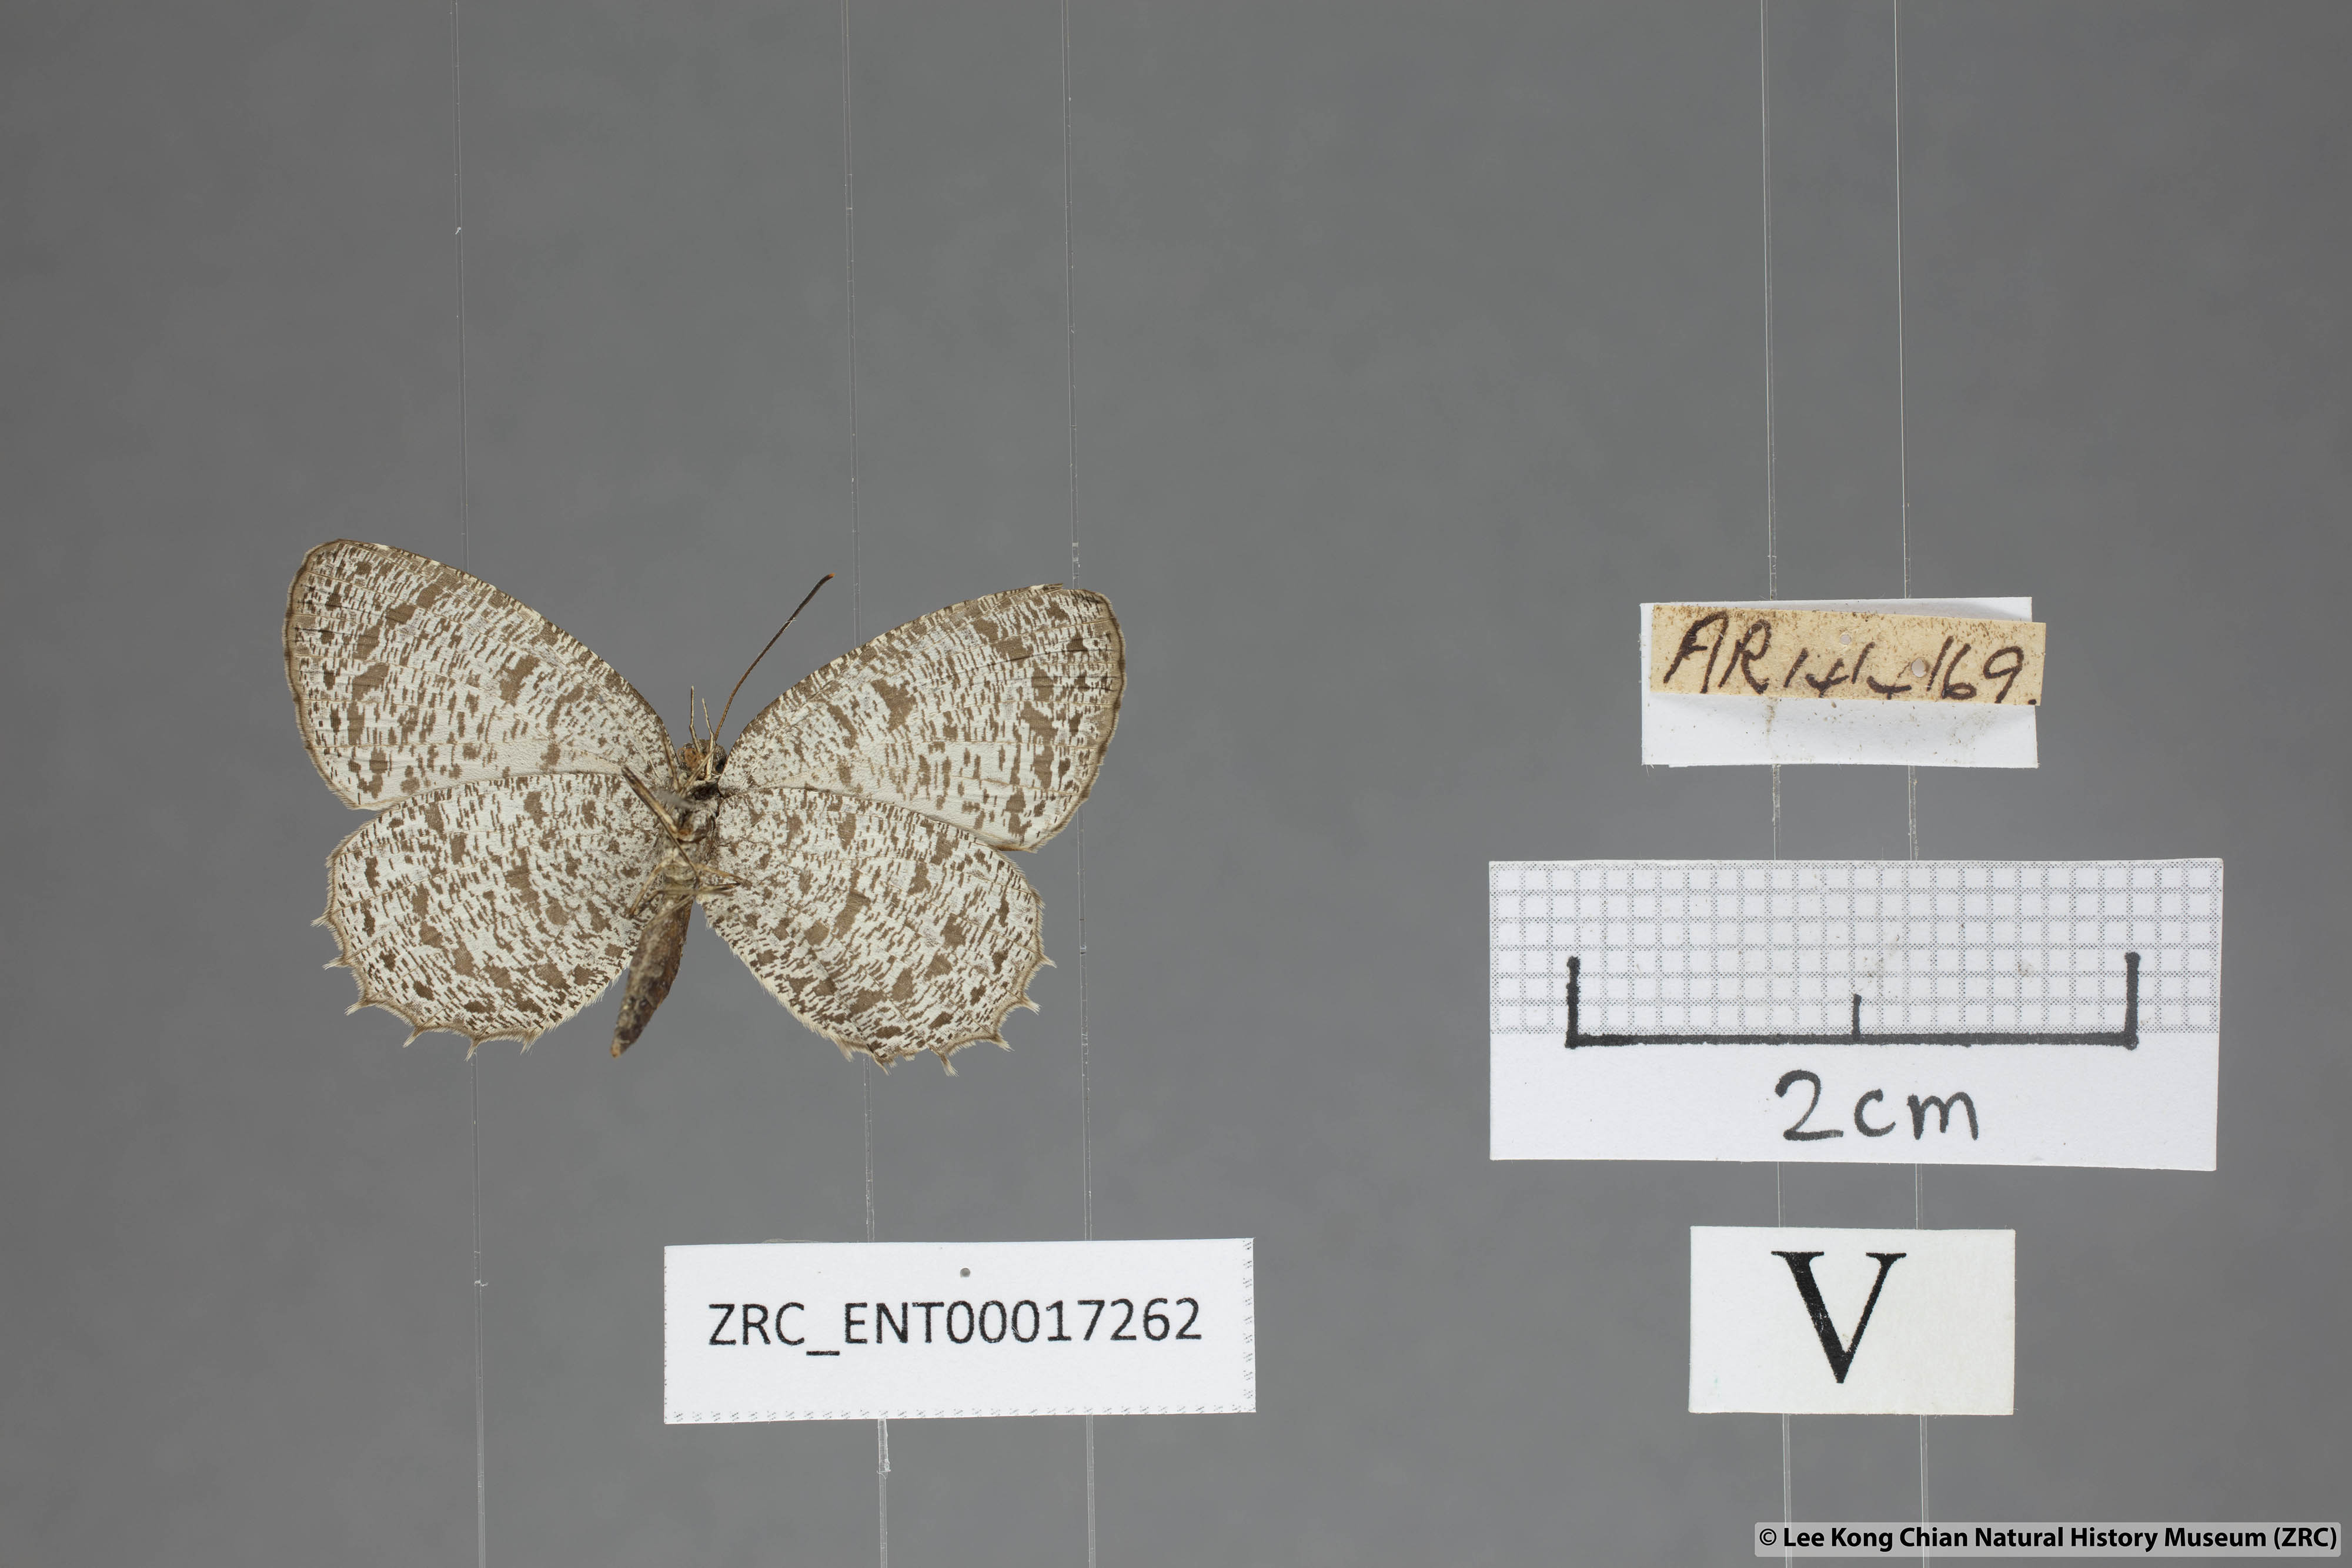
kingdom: Animalia
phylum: Arthropoda
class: Insecta
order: Lepidoptera
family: Lycaenidae
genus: Allotinus
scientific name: Allotinus leogoron
